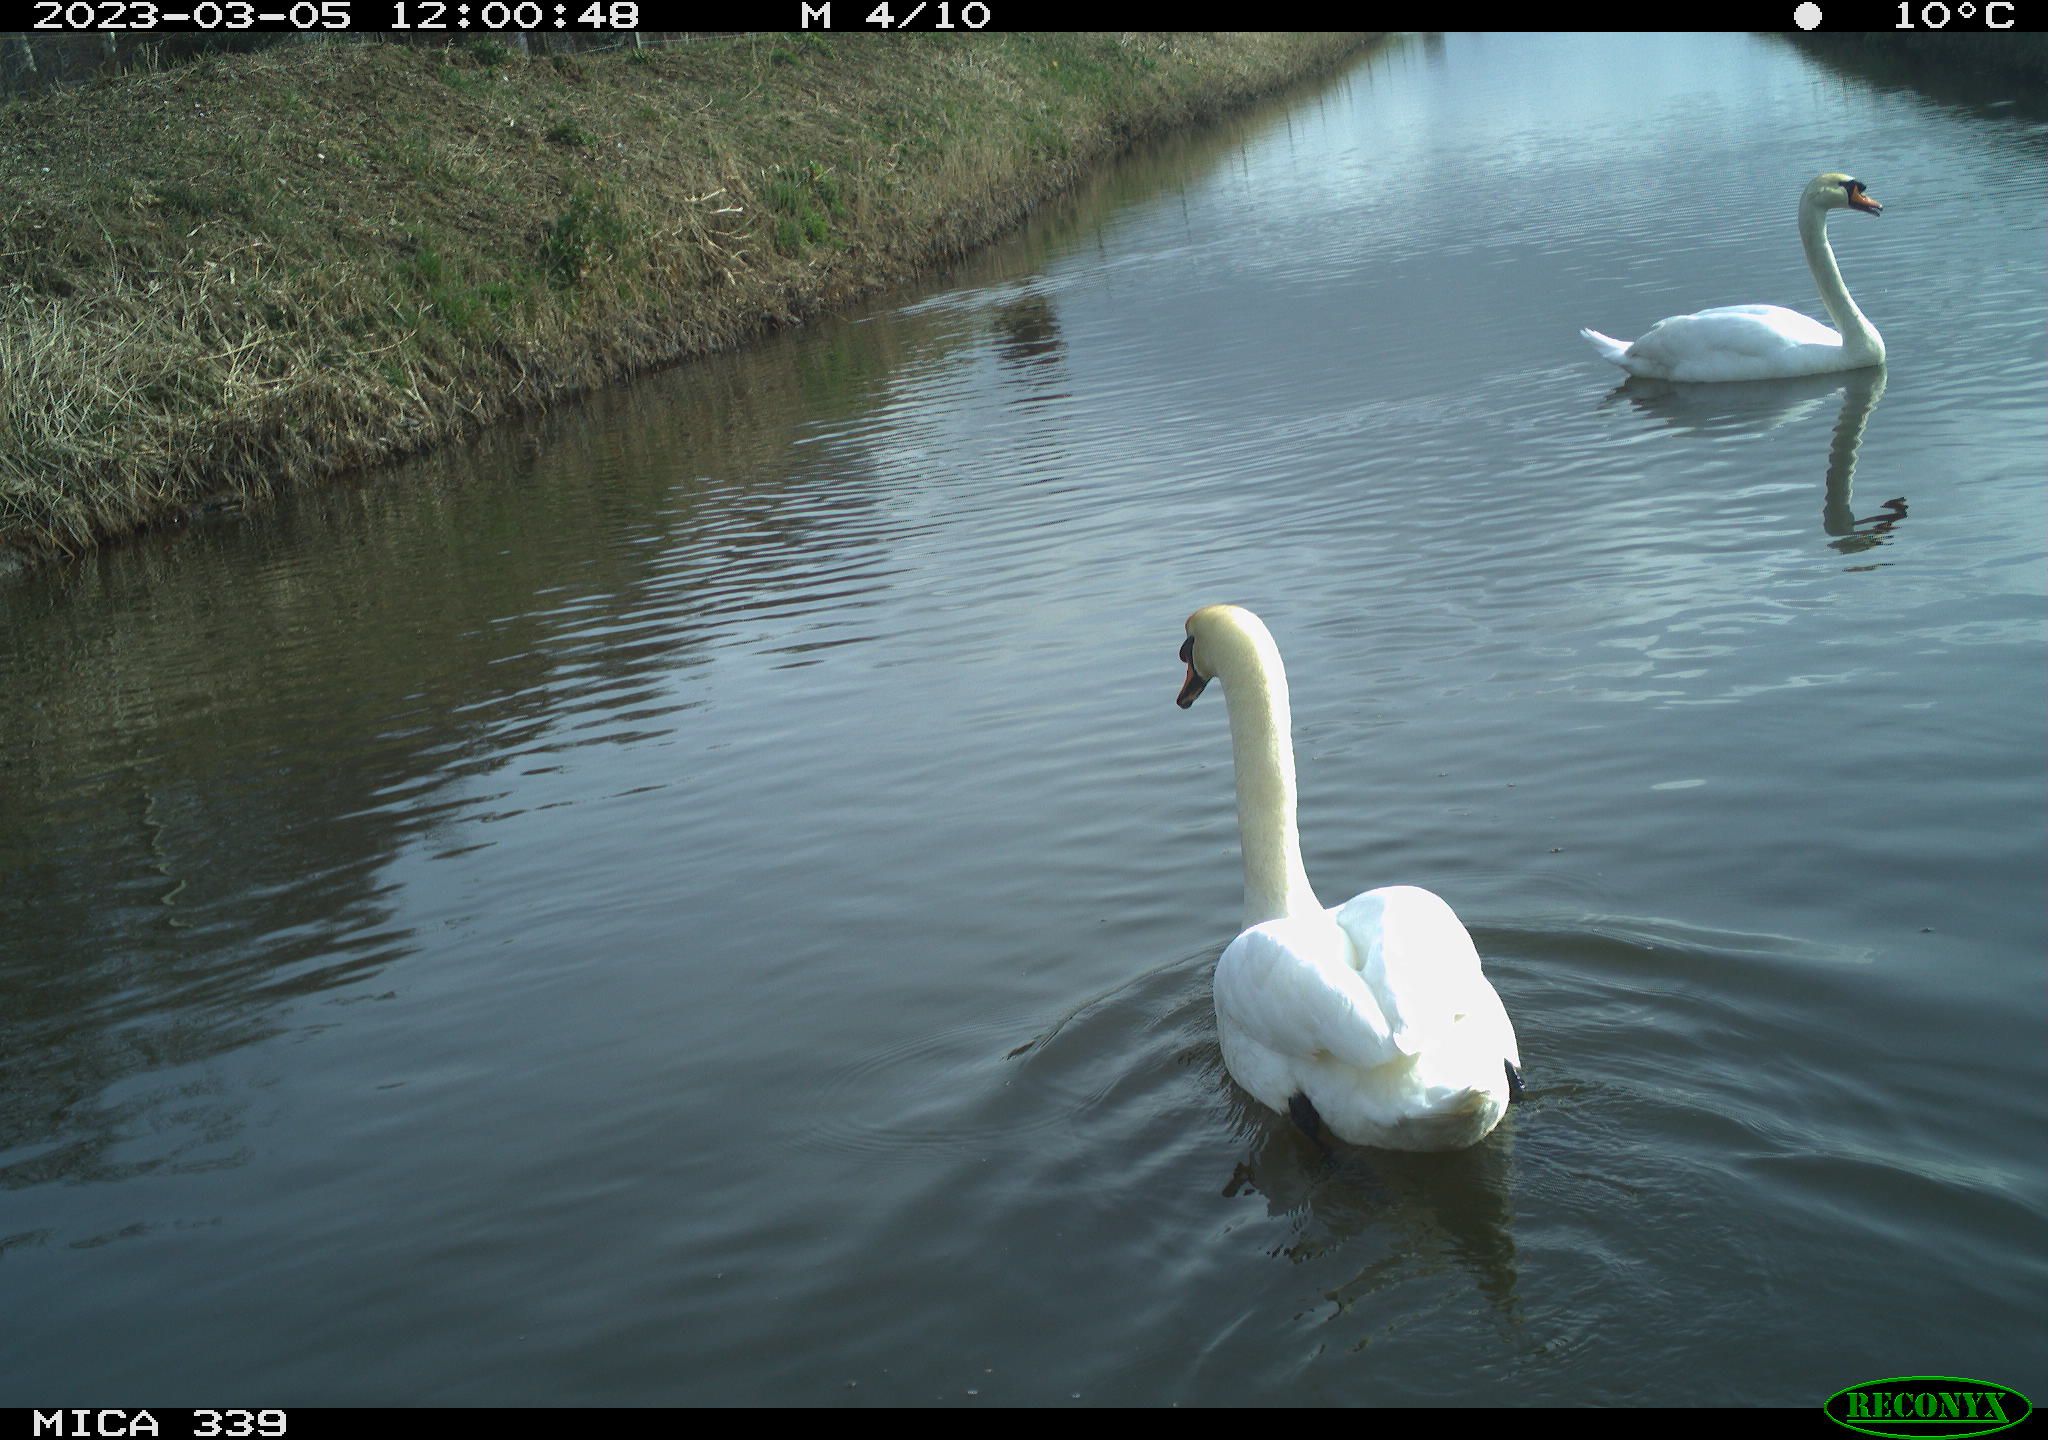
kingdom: Animalia
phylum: Chordata
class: Aves
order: Anseriformes
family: Anatidae
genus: Cygnus
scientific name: Cygnus olor
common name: Mute swan
